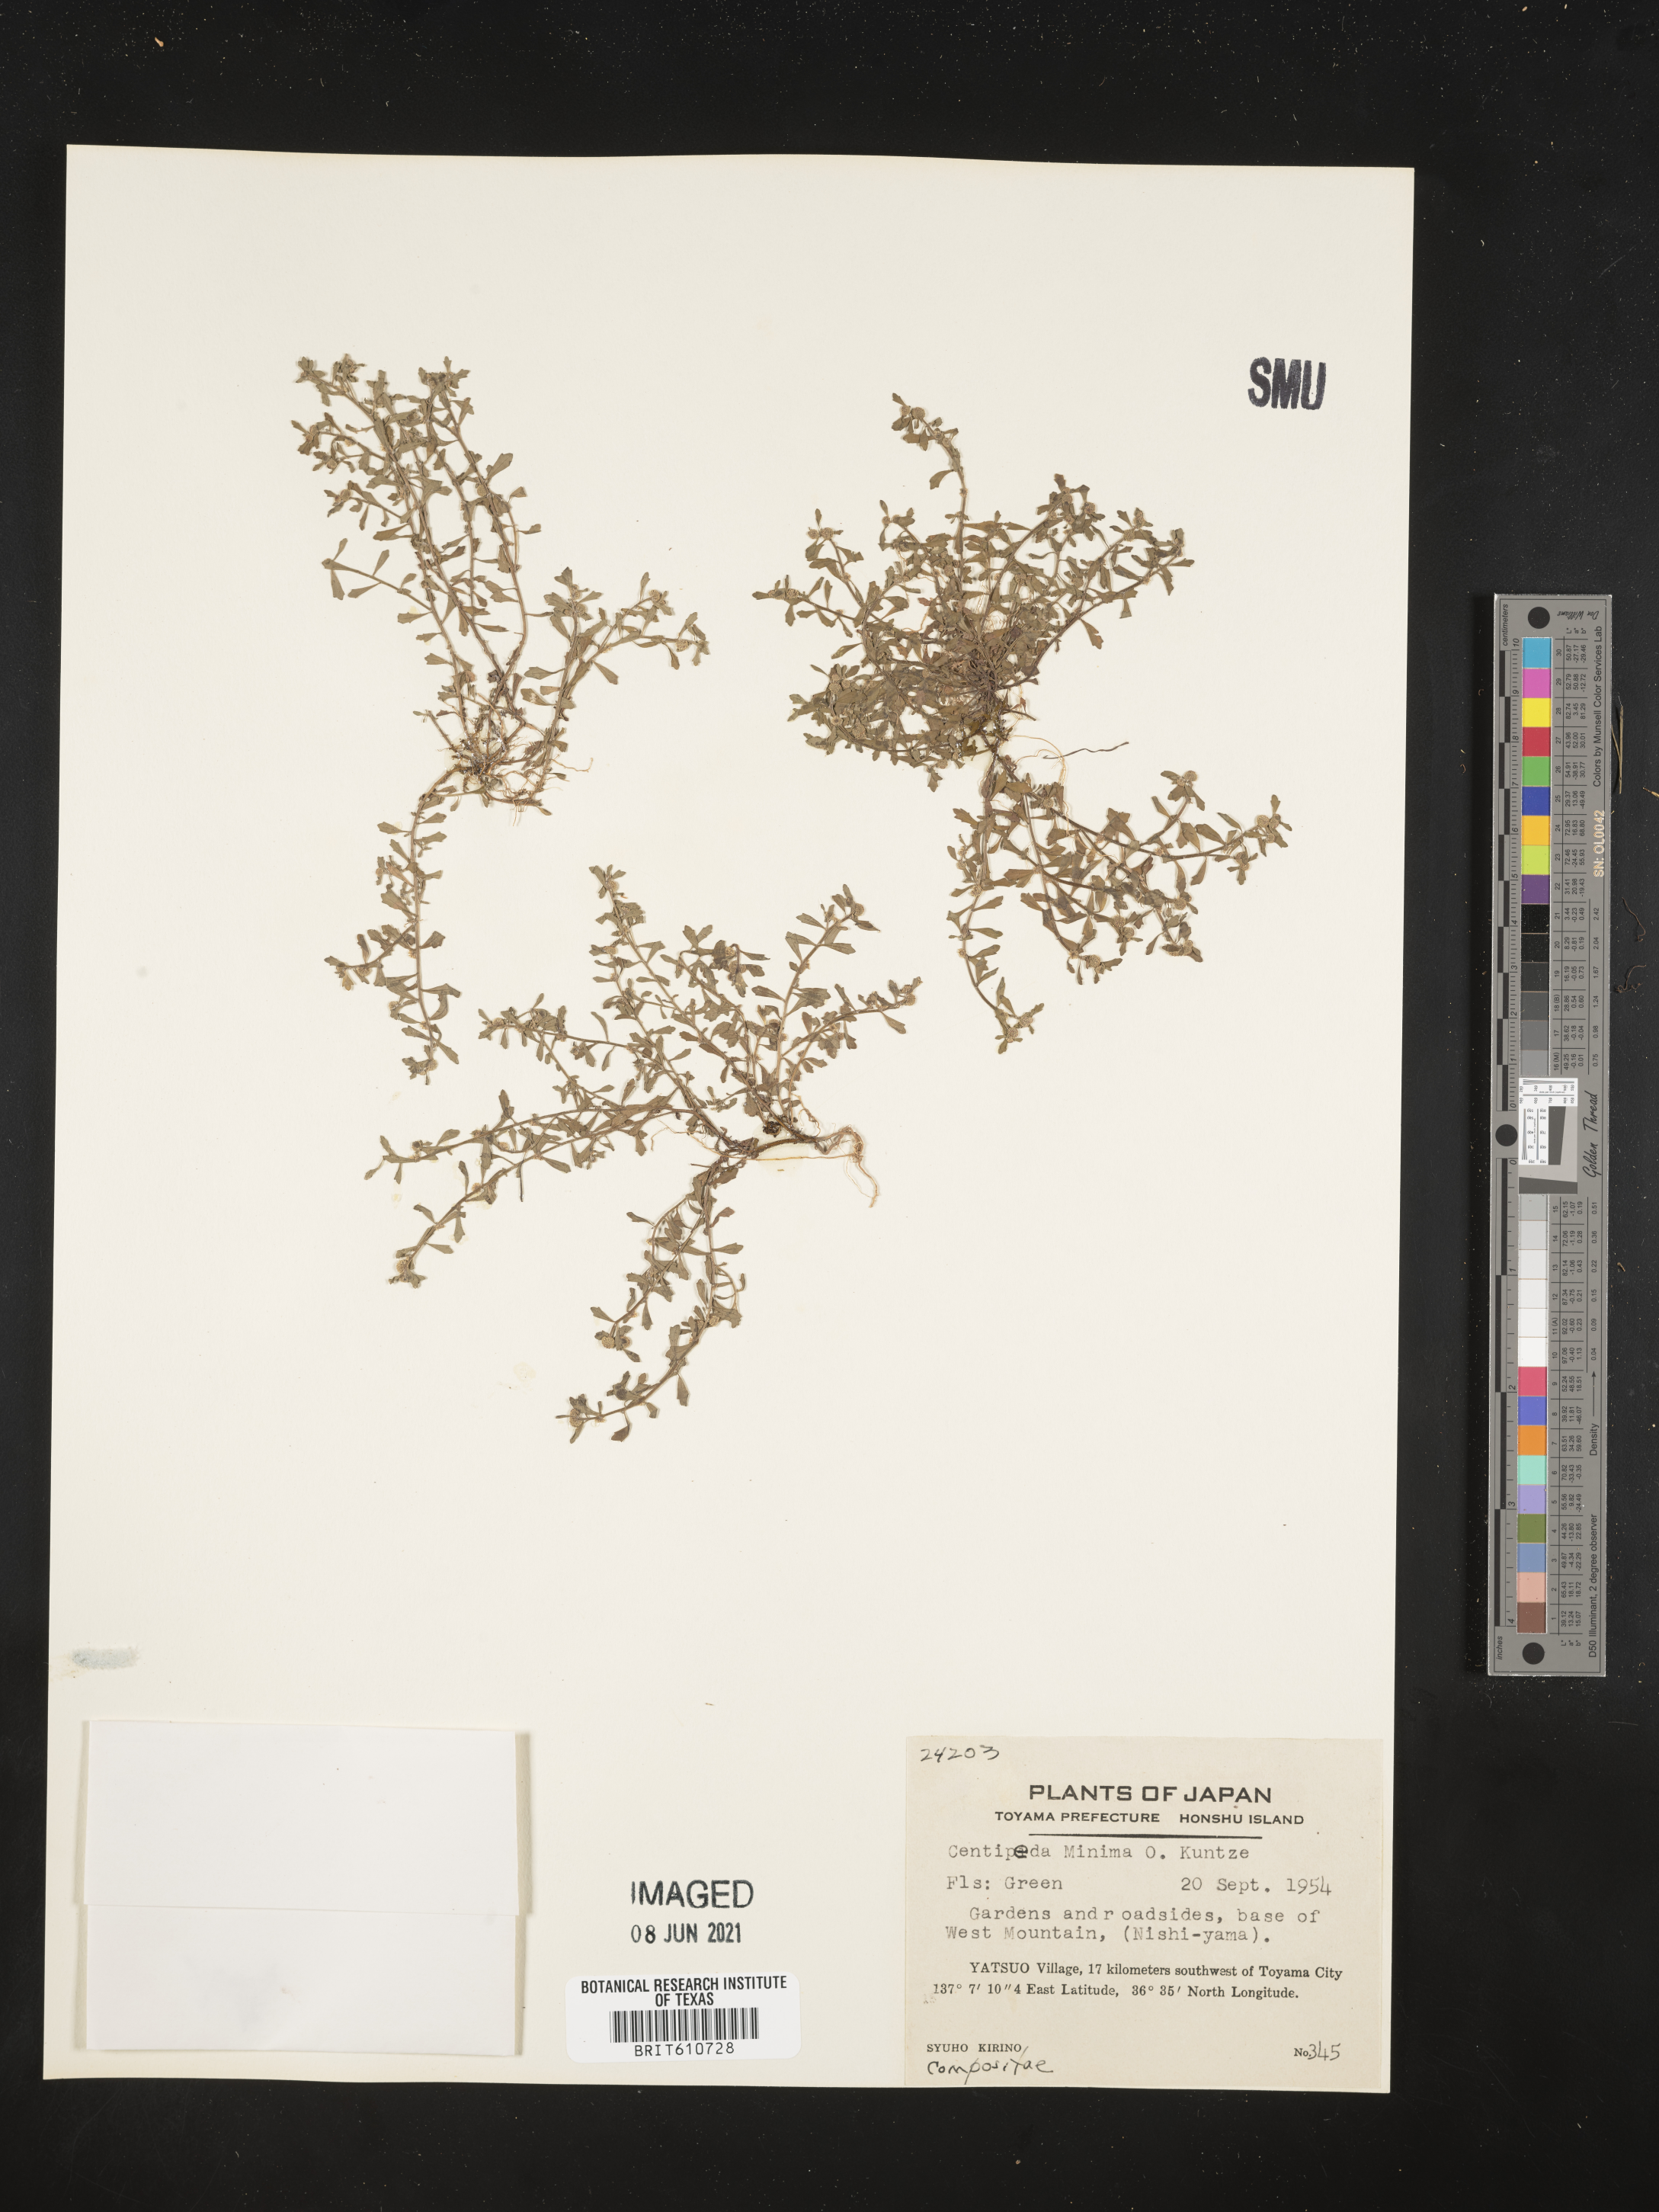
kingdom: Plantae
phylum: Tracheophyta
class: Magnoliopsida
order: Asterales
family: Asteraceae
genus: Centipeda
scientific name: Centipeda minima
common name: Spreading sneezeweed
